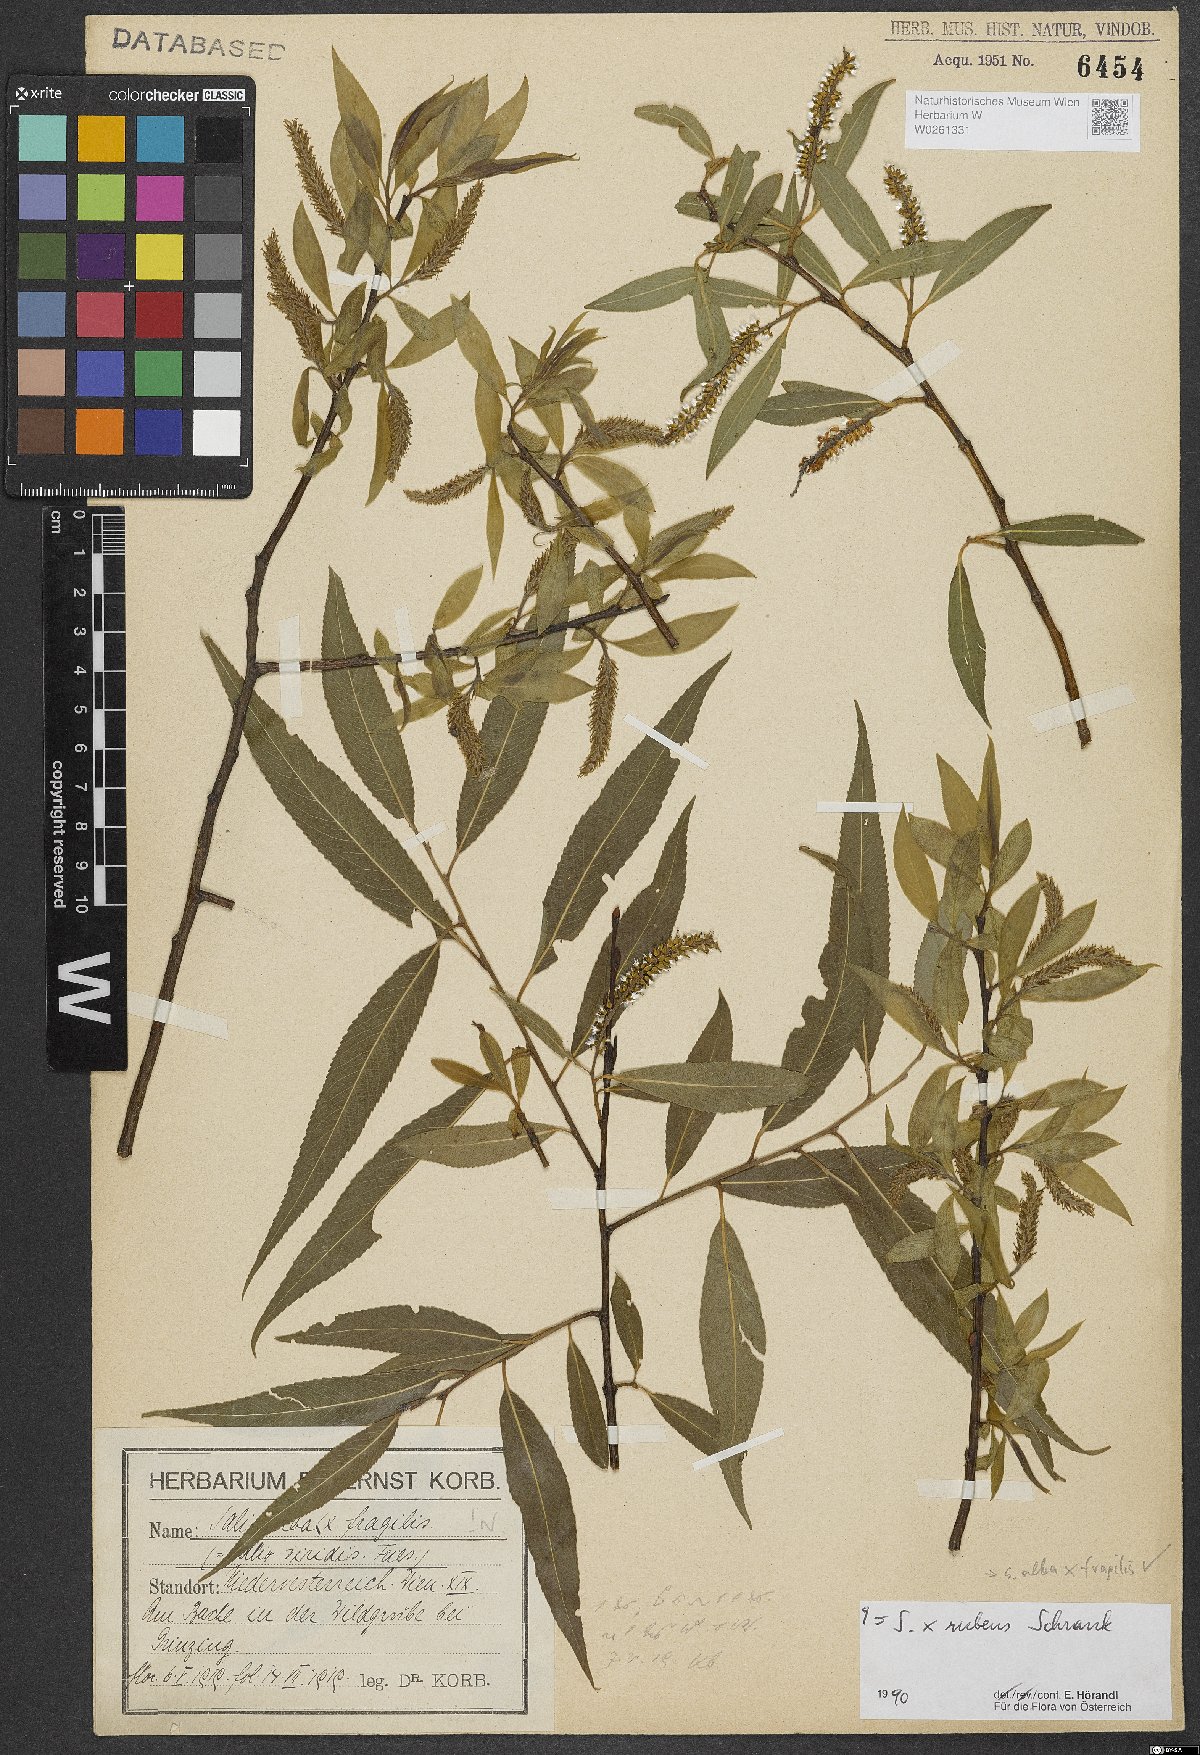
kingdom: Plantae
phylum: Tracheophyta
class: Magnoliopsida
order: Malpighiales
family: Salicaceae
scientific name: Salicaceae
